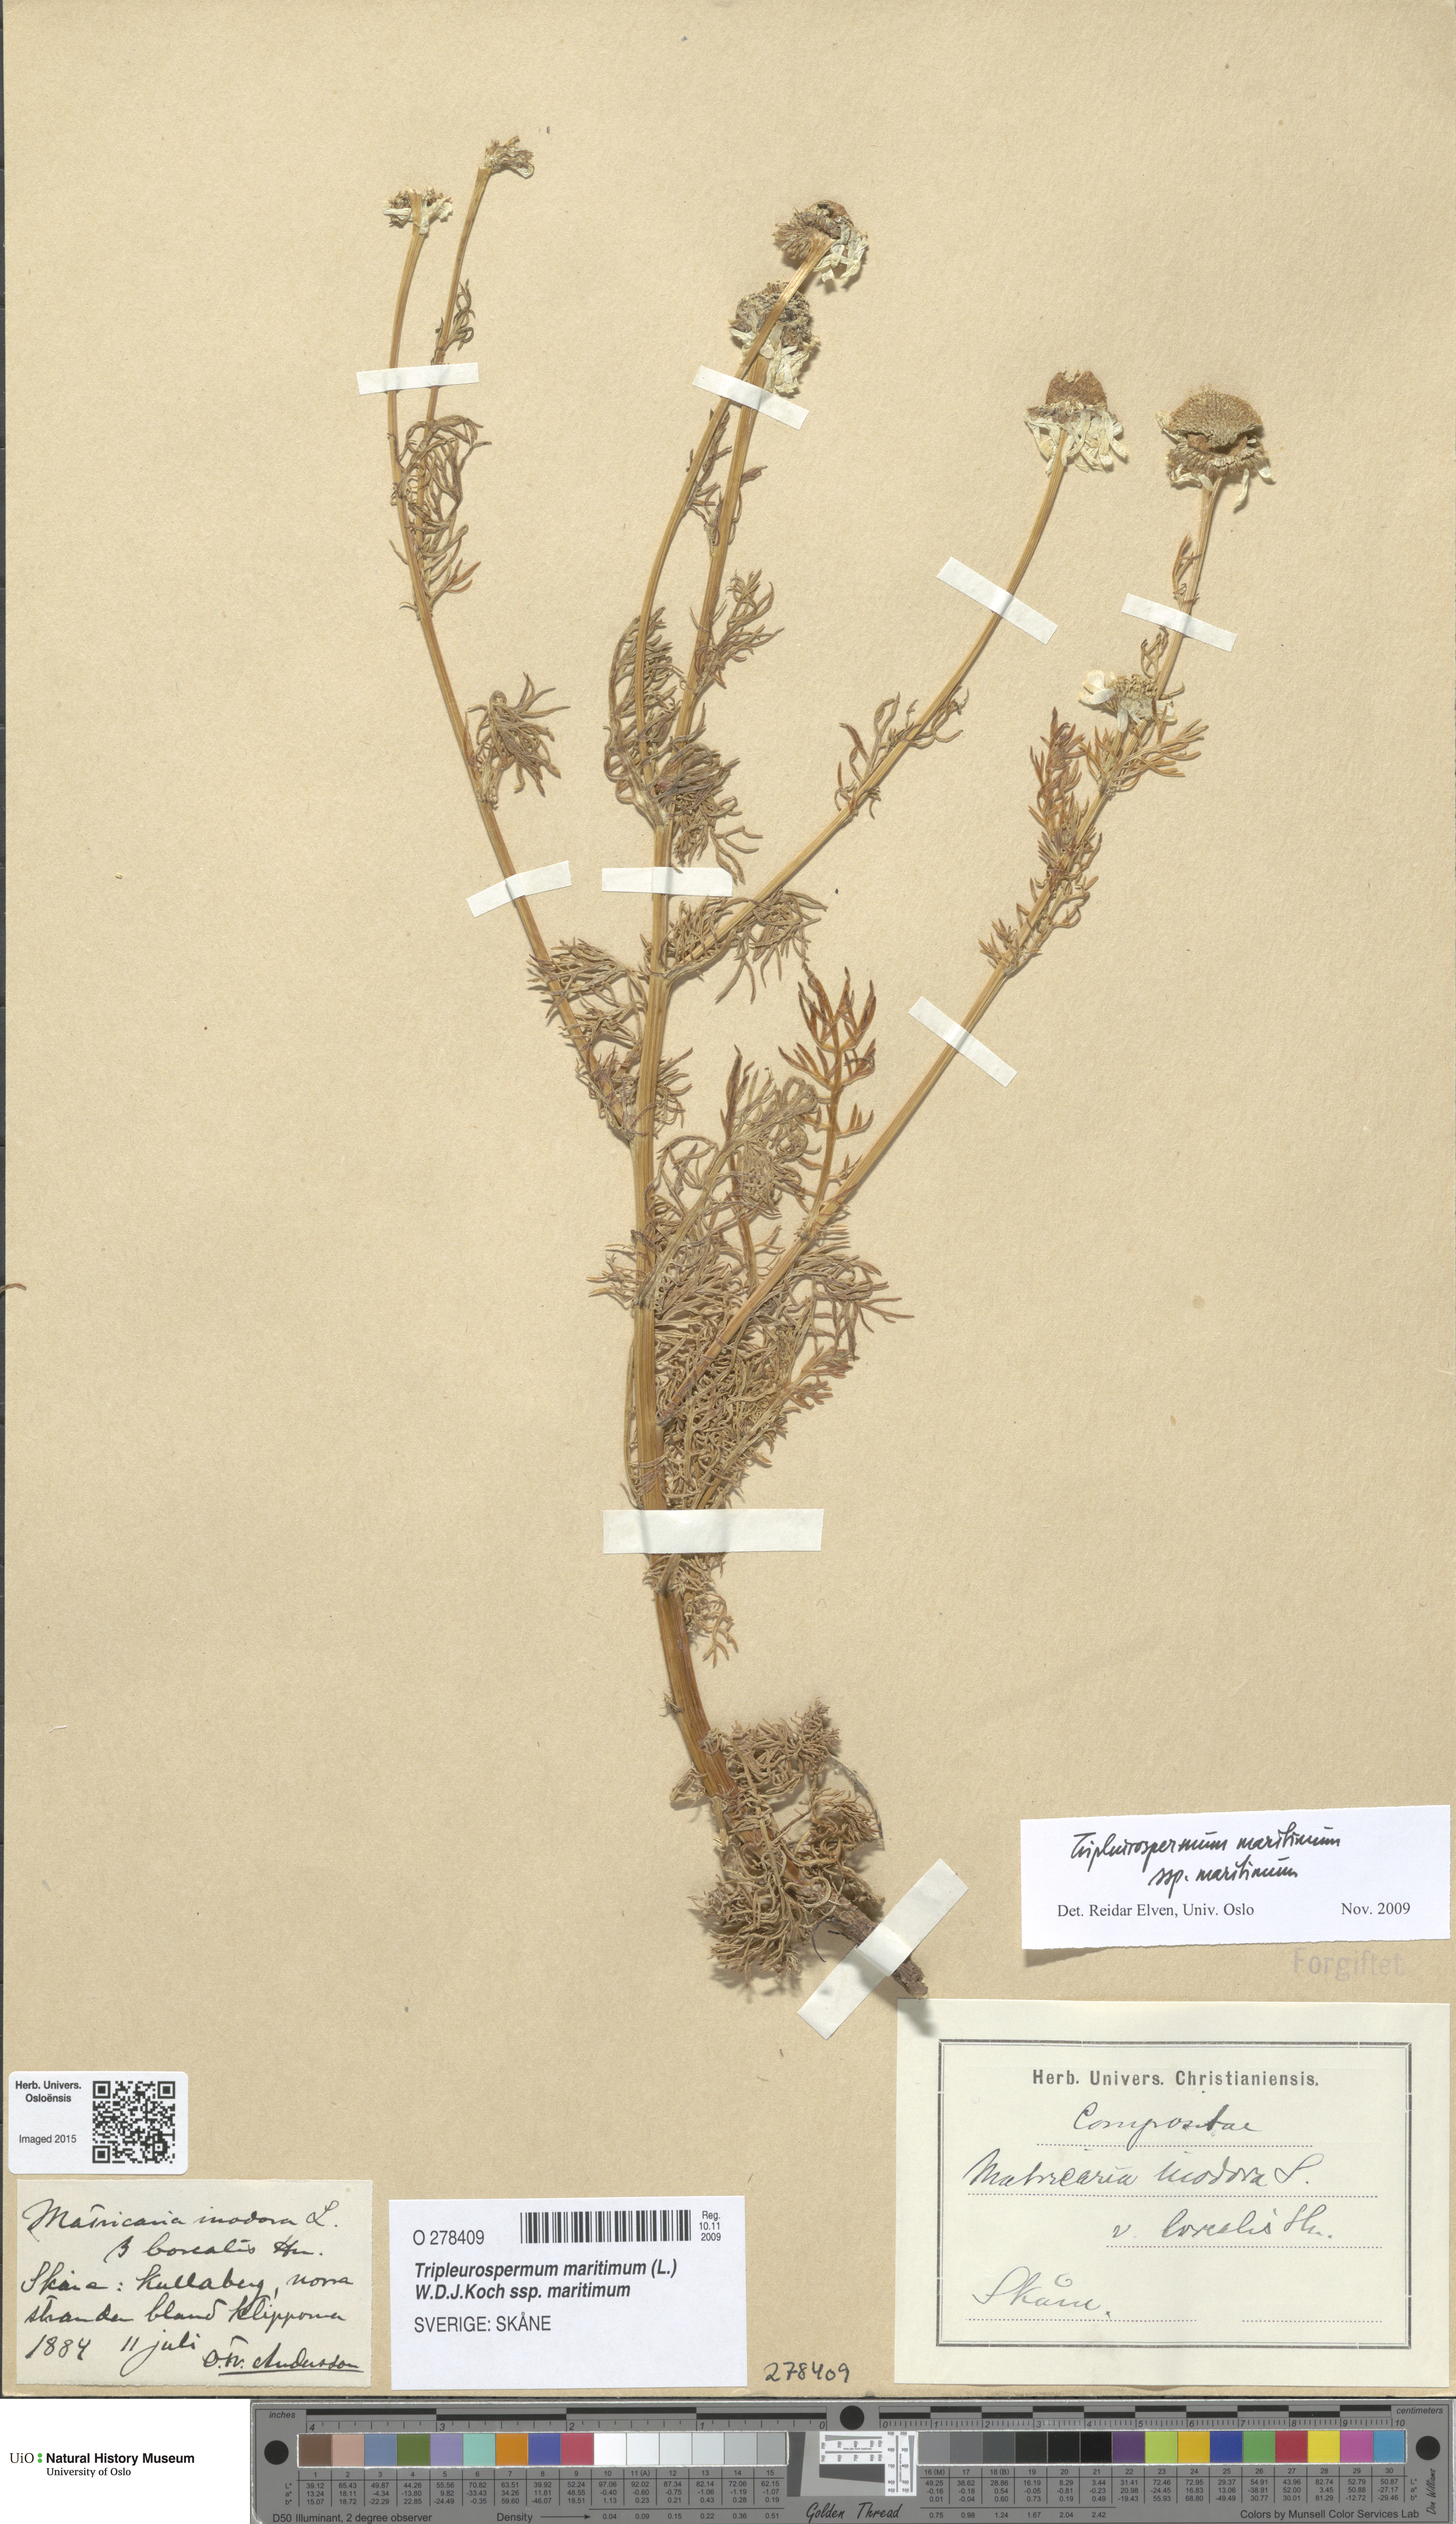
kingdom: Plantae
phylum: Tracheophyta
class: Magnoliopsida
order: Asterales
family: Asteraceae
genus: Tripleurospermum
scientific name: Tripleurospermum maritimum
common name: Sea mayweed
